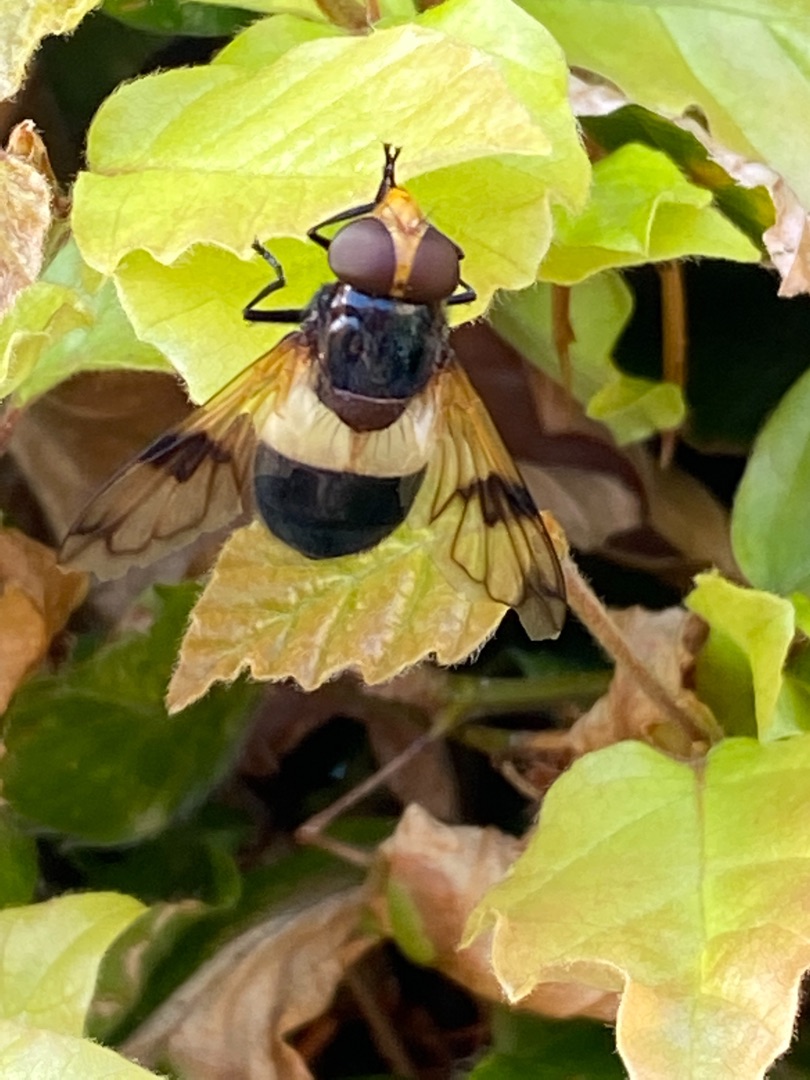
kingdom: Animalia
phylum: Arthropoda
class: Insecta
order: Diptera
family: Syrphidae
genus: Volucella
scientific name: Volucella pellucens
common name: Hvidbåndet humlesvirreflue
